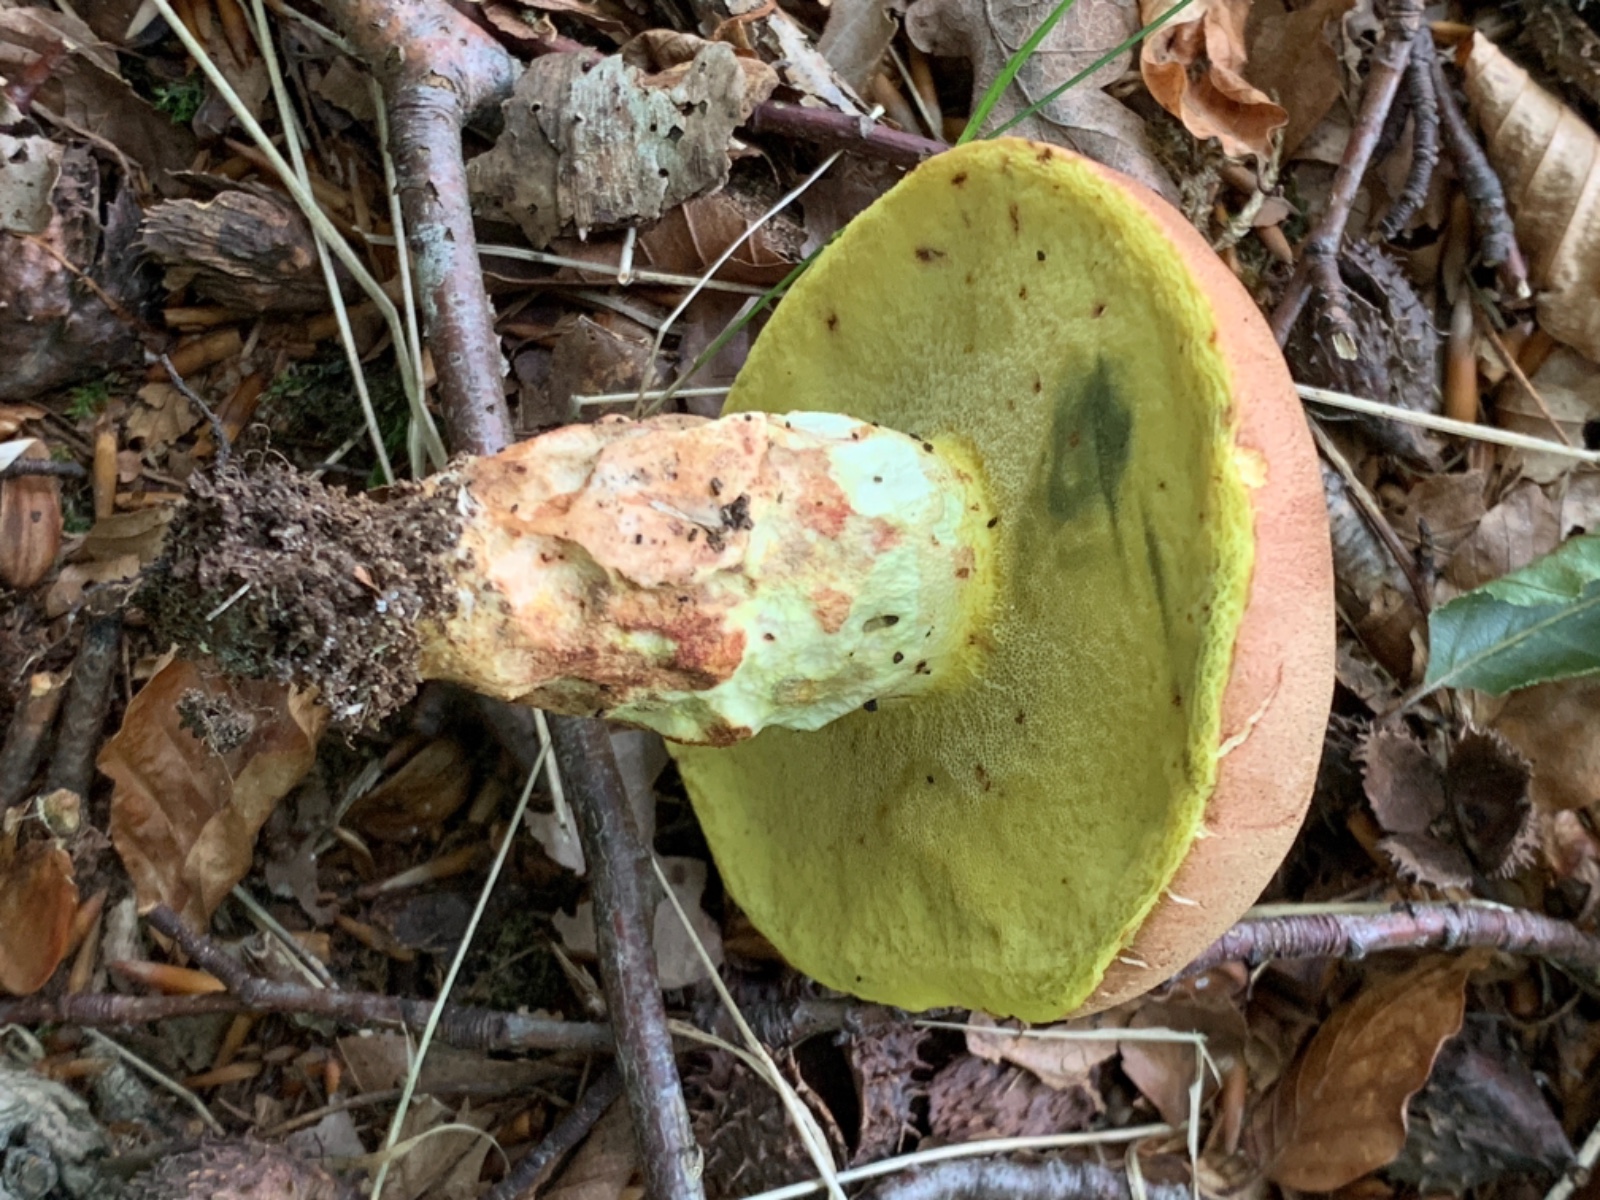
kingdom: Fungi
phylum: Basidiomycota
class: Agaricomycetes
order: Boletales
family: Boletaceae
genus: Butyriboletus
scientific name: Butyriboletus appendiculatus
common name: tenstokket rørhat
